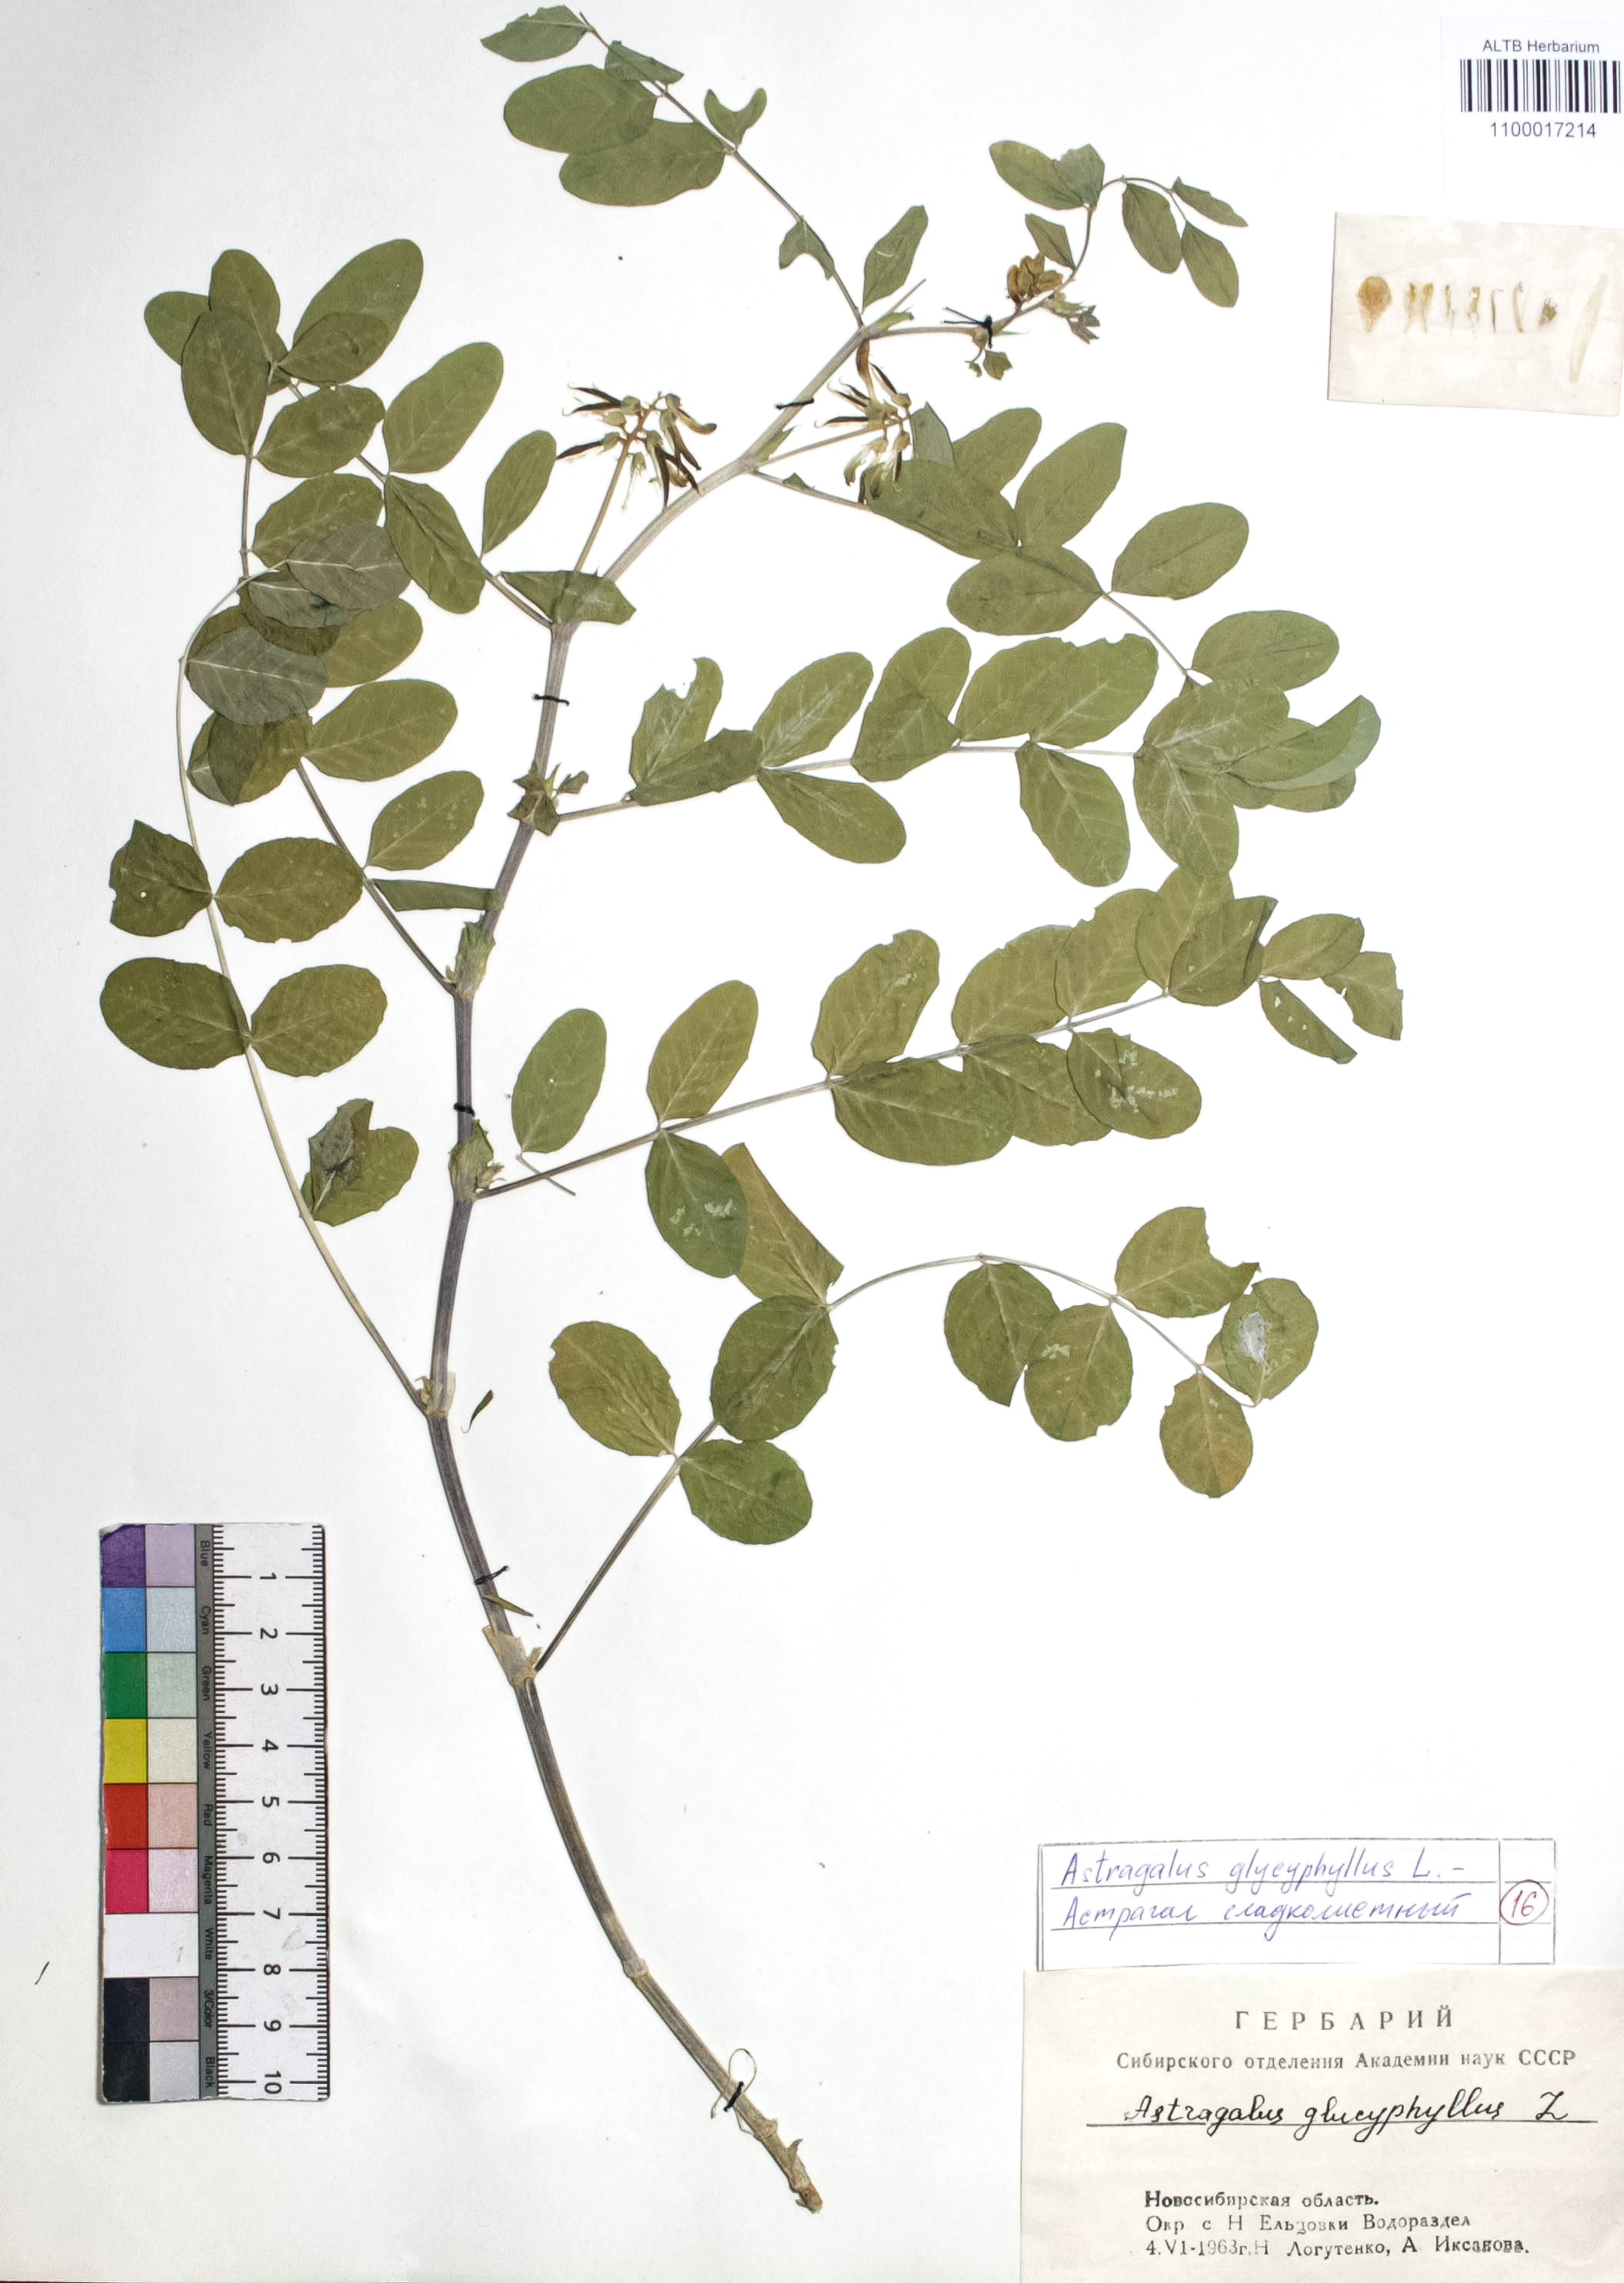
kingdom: Plantae
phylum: Tracheophyta
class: Magnoliopsida
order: Fabales
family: Fabaceae
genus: Astragalus
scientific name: Astragalus glycyphyllos
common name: Wild liquorice
